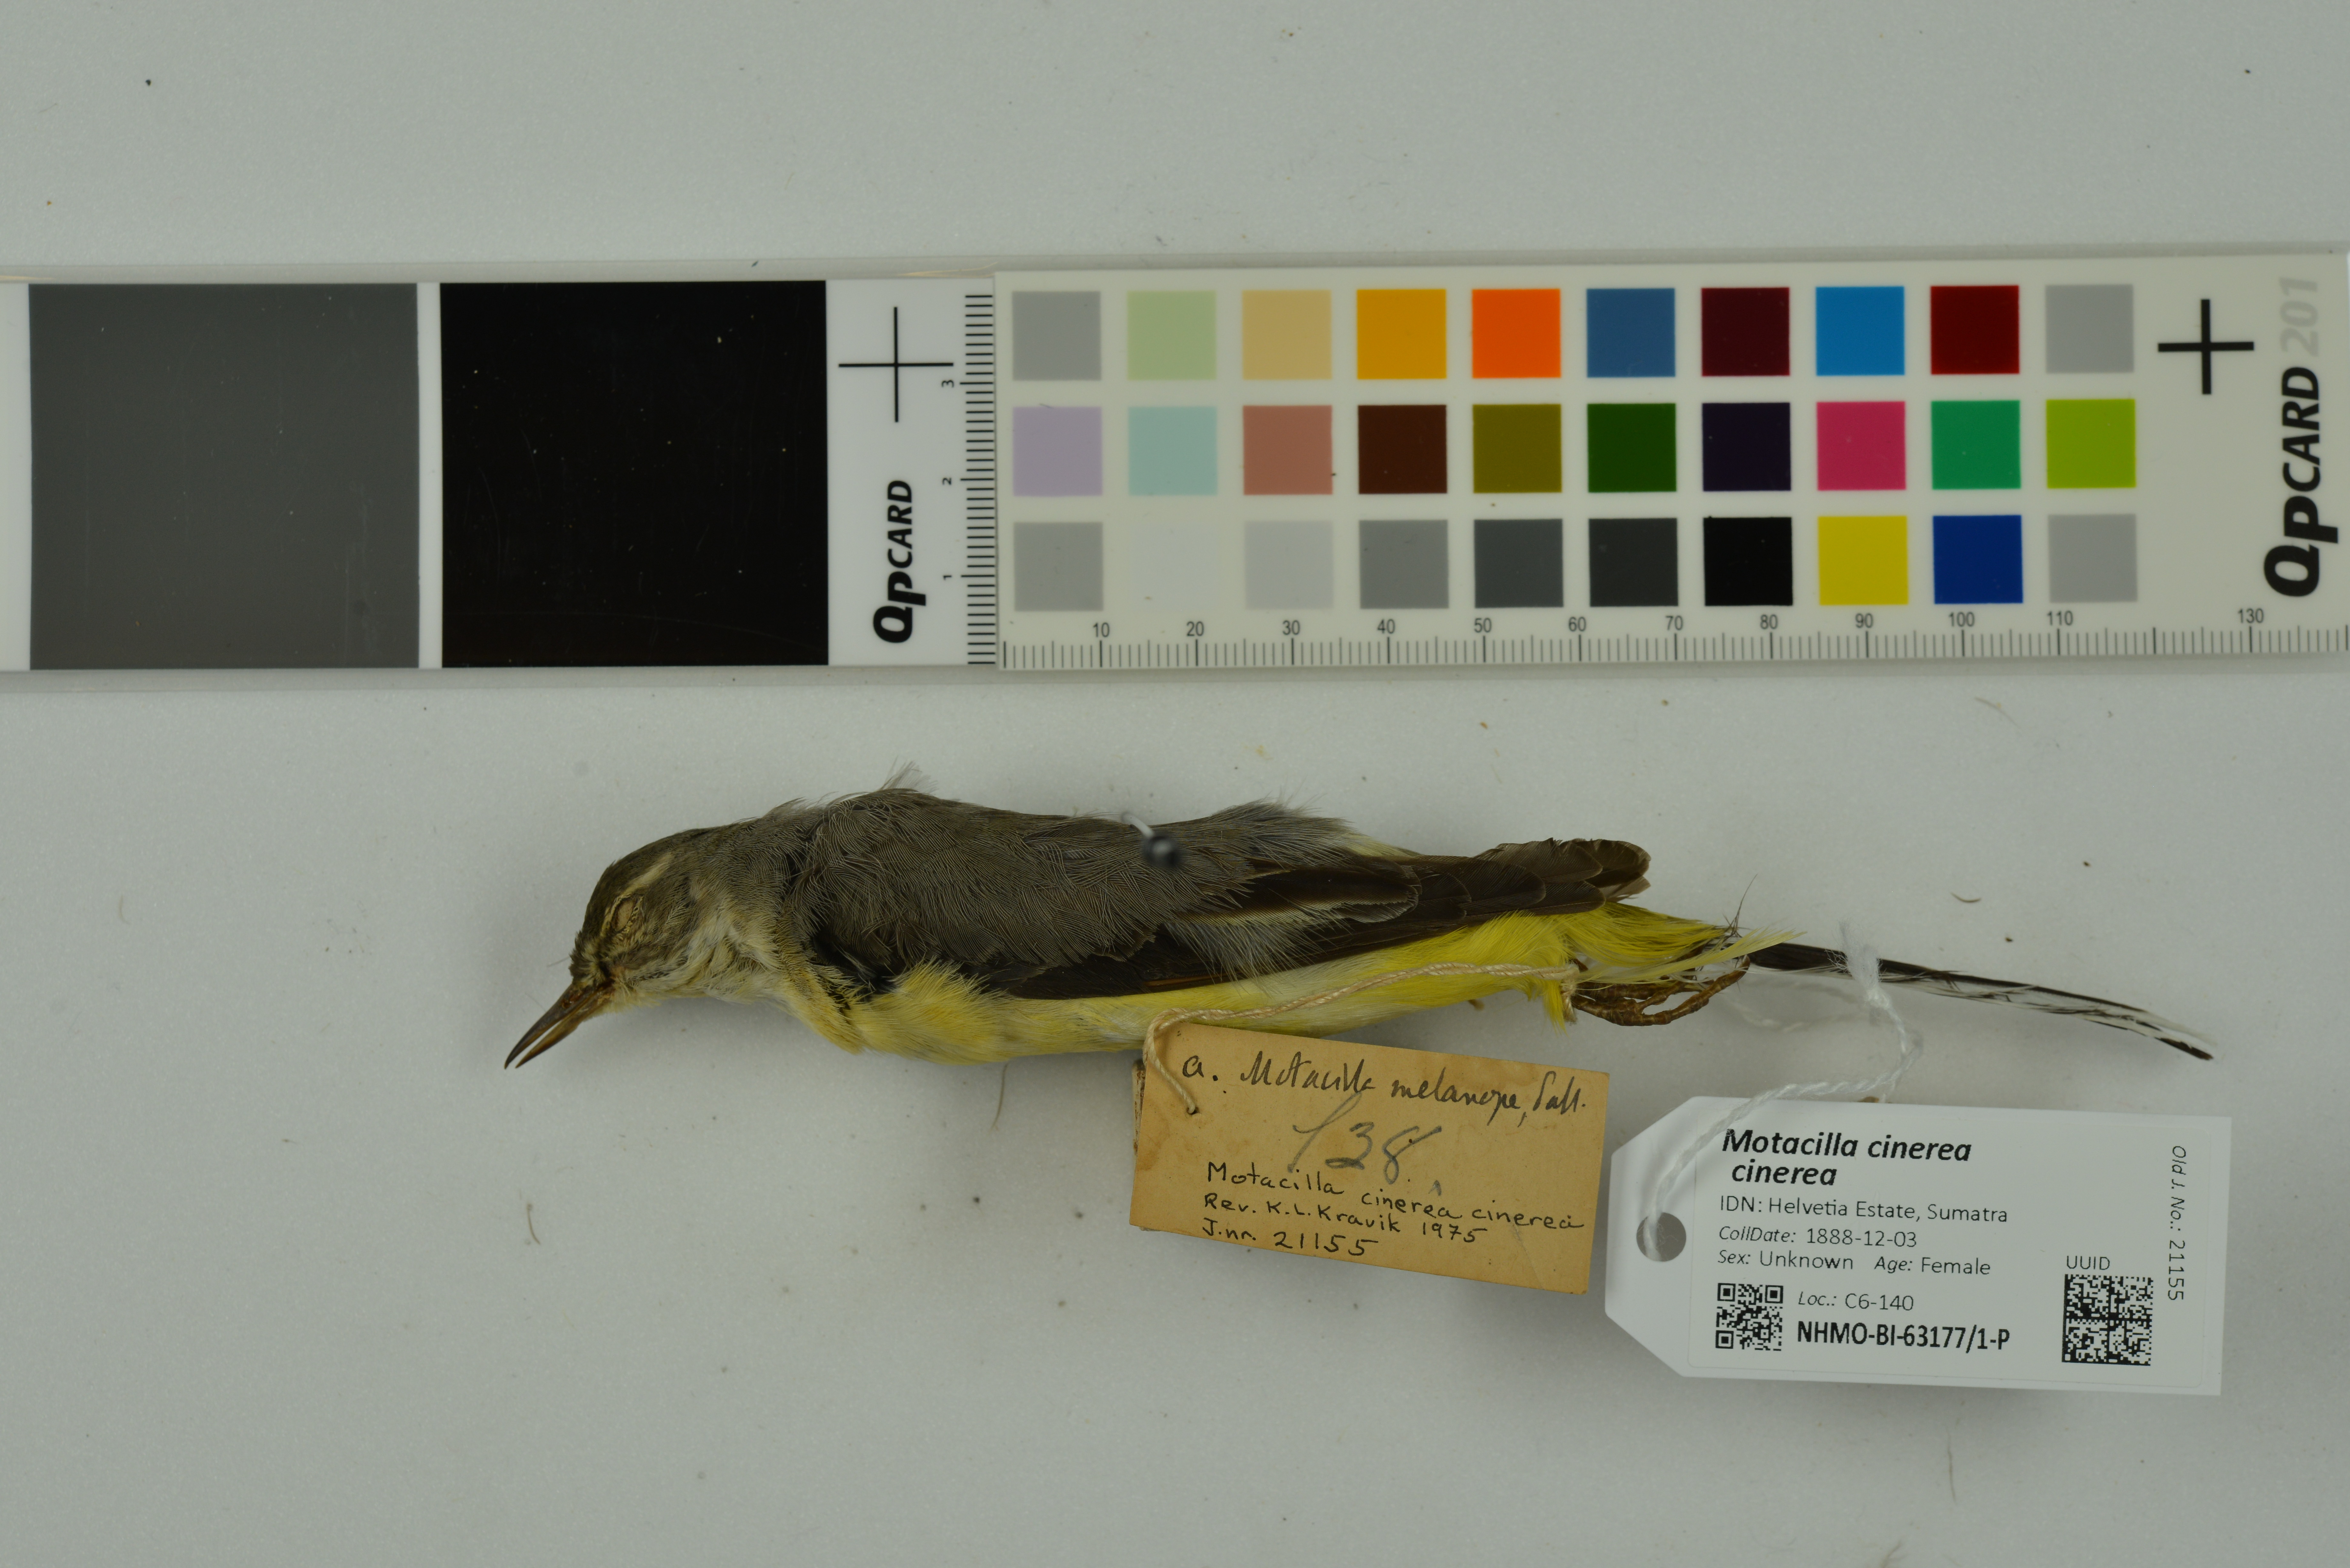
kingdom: Animalia
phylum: Chordata
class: Aves
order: Passeriformes
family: Motacillidae
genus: Motacilla
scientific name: Motacilla cinerea
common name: Grey wagtail
